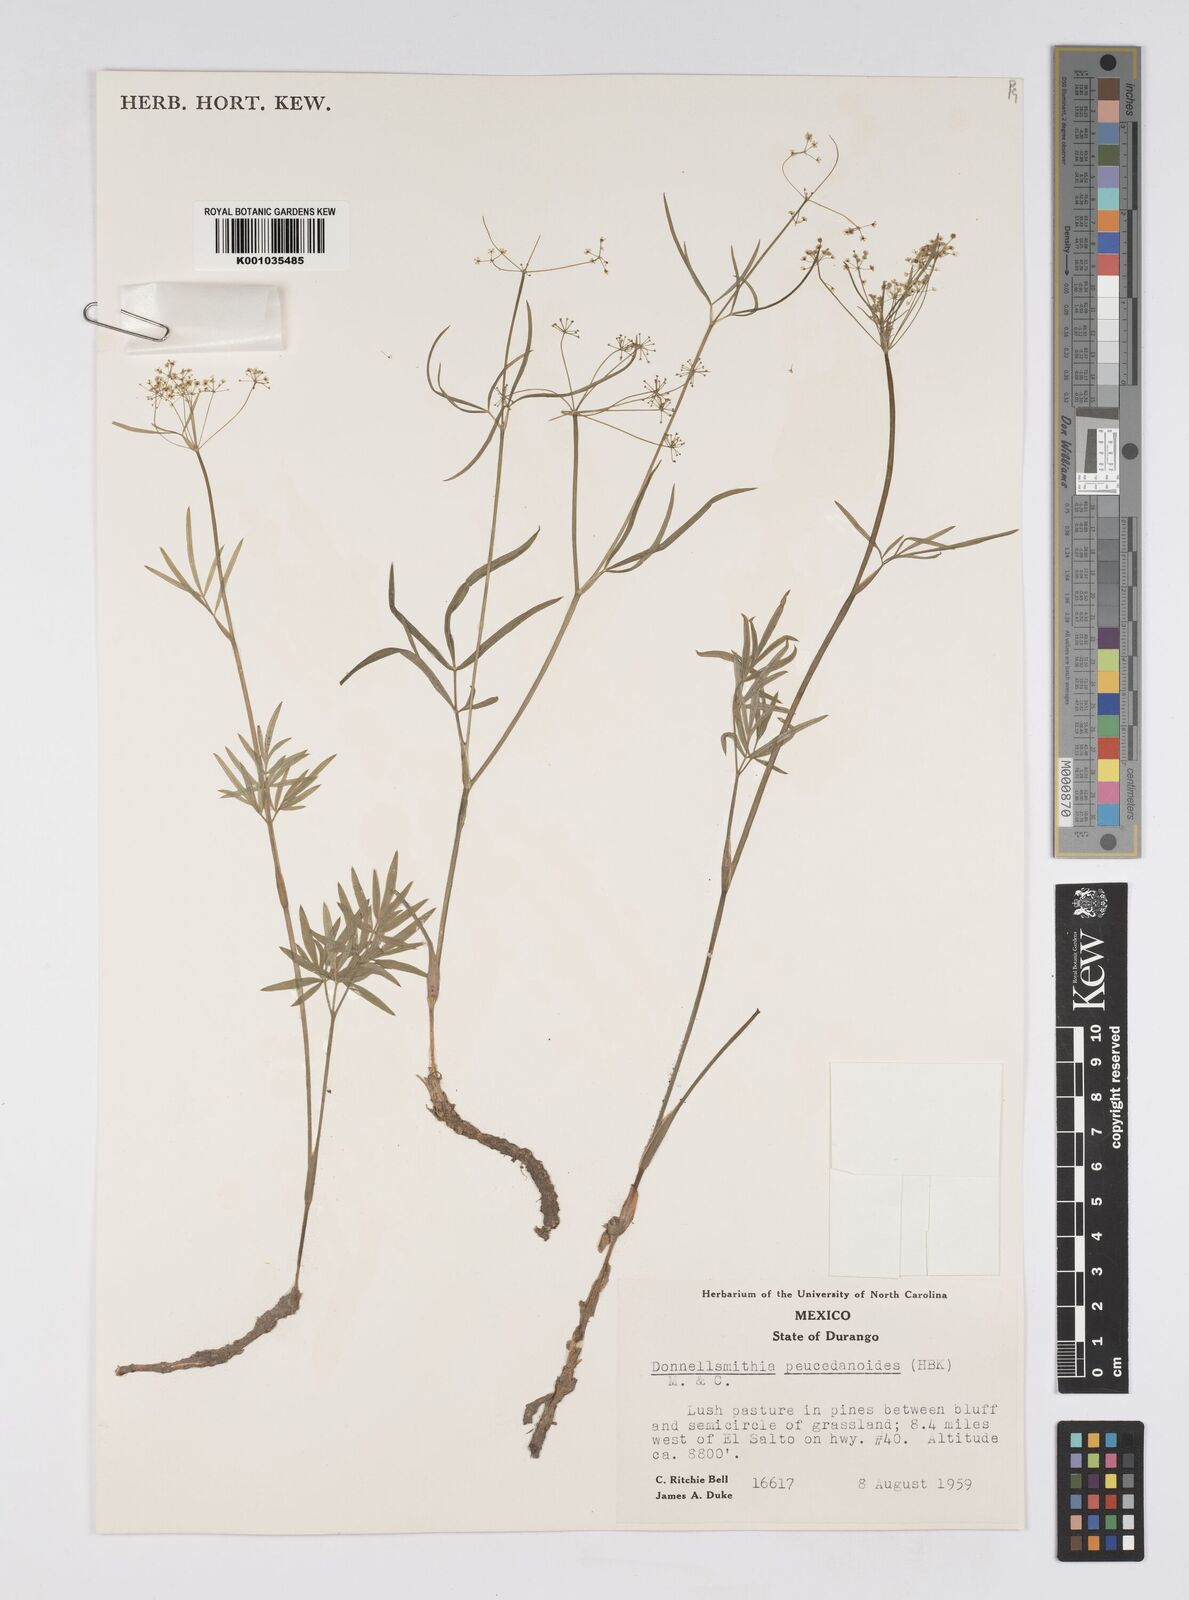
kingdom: Plantae
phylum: Tracheophyta
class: Magnoliopsida
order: Apiales
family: Apiaceae
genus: Donnellsmithia
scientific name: Donnellsmithia juncea
